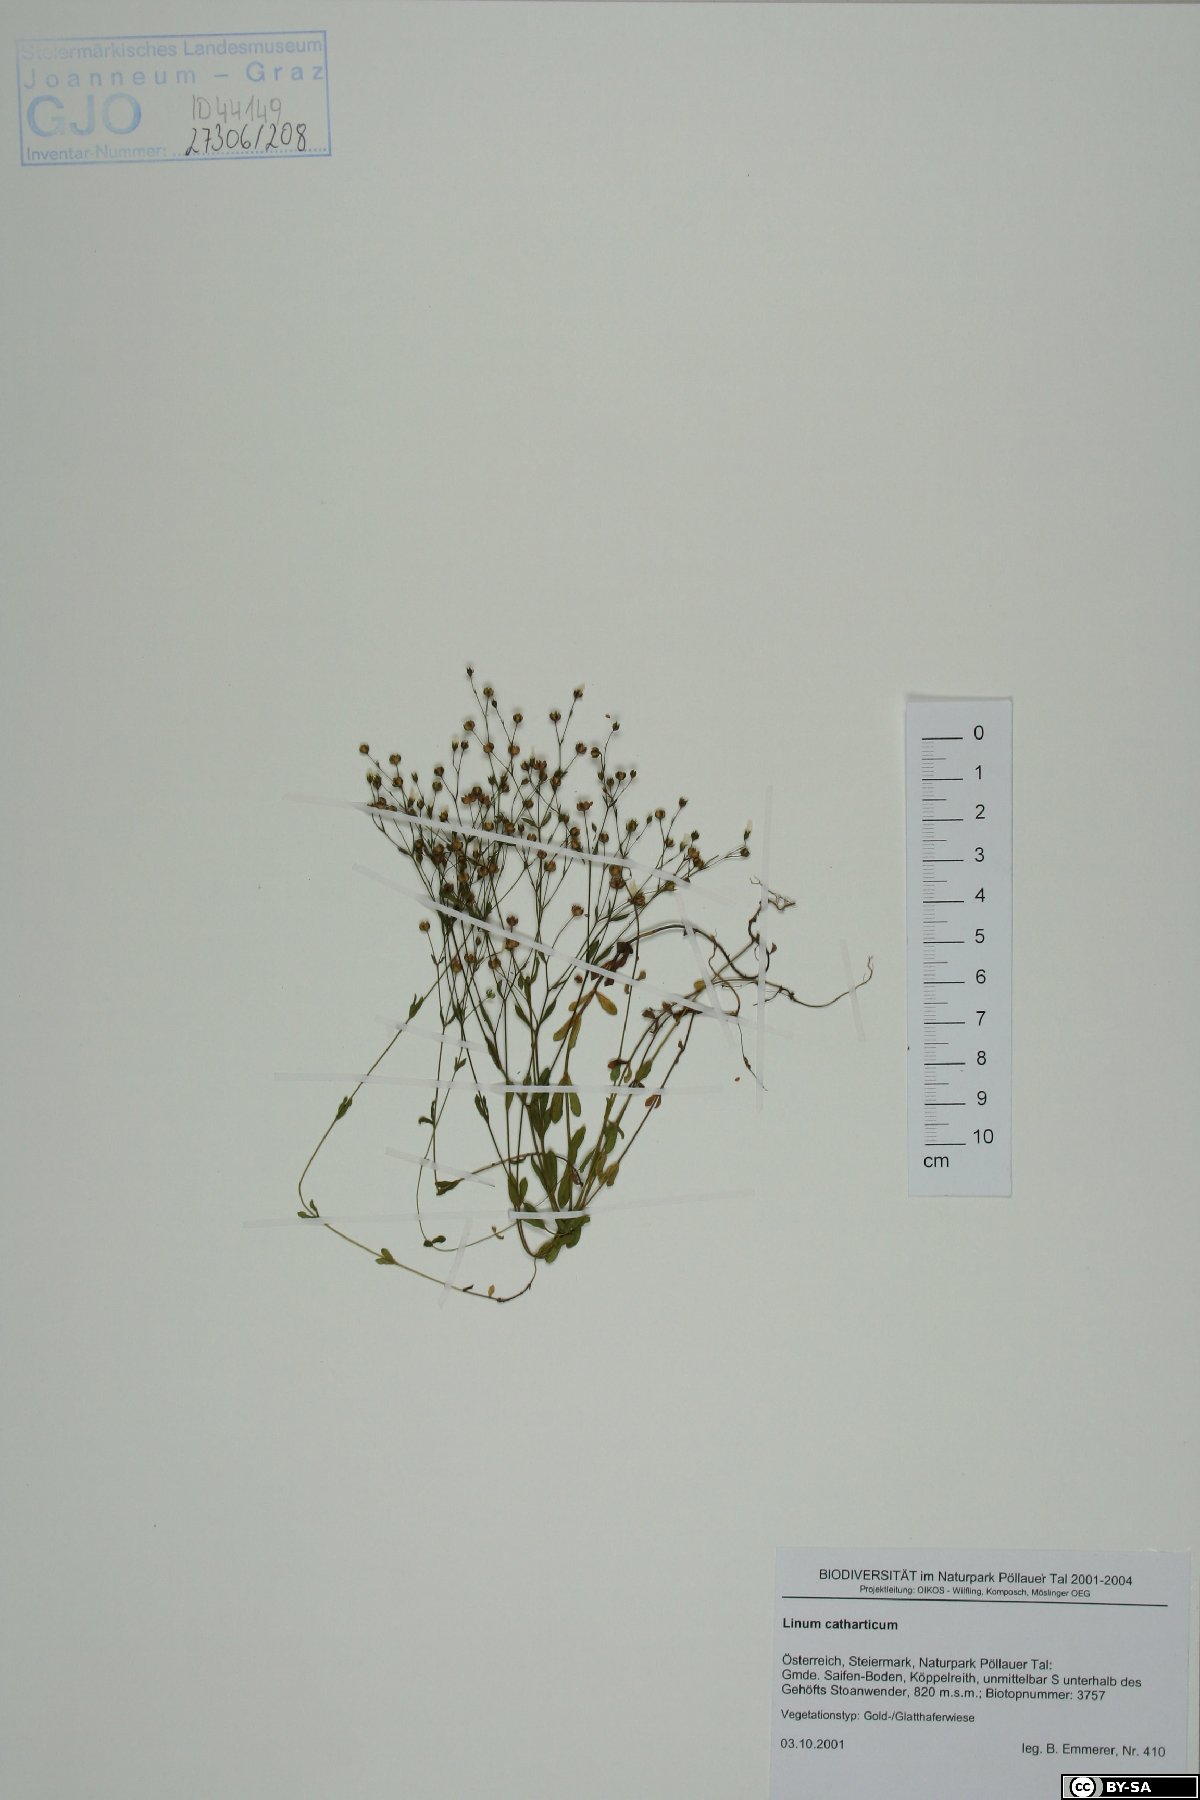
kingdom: Plantae
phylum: Tracheophyta
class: Magnoliopsida
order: Malpighiales
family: Linaceae
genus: Linum
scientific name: Linum catharticum
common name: Fairy flax
